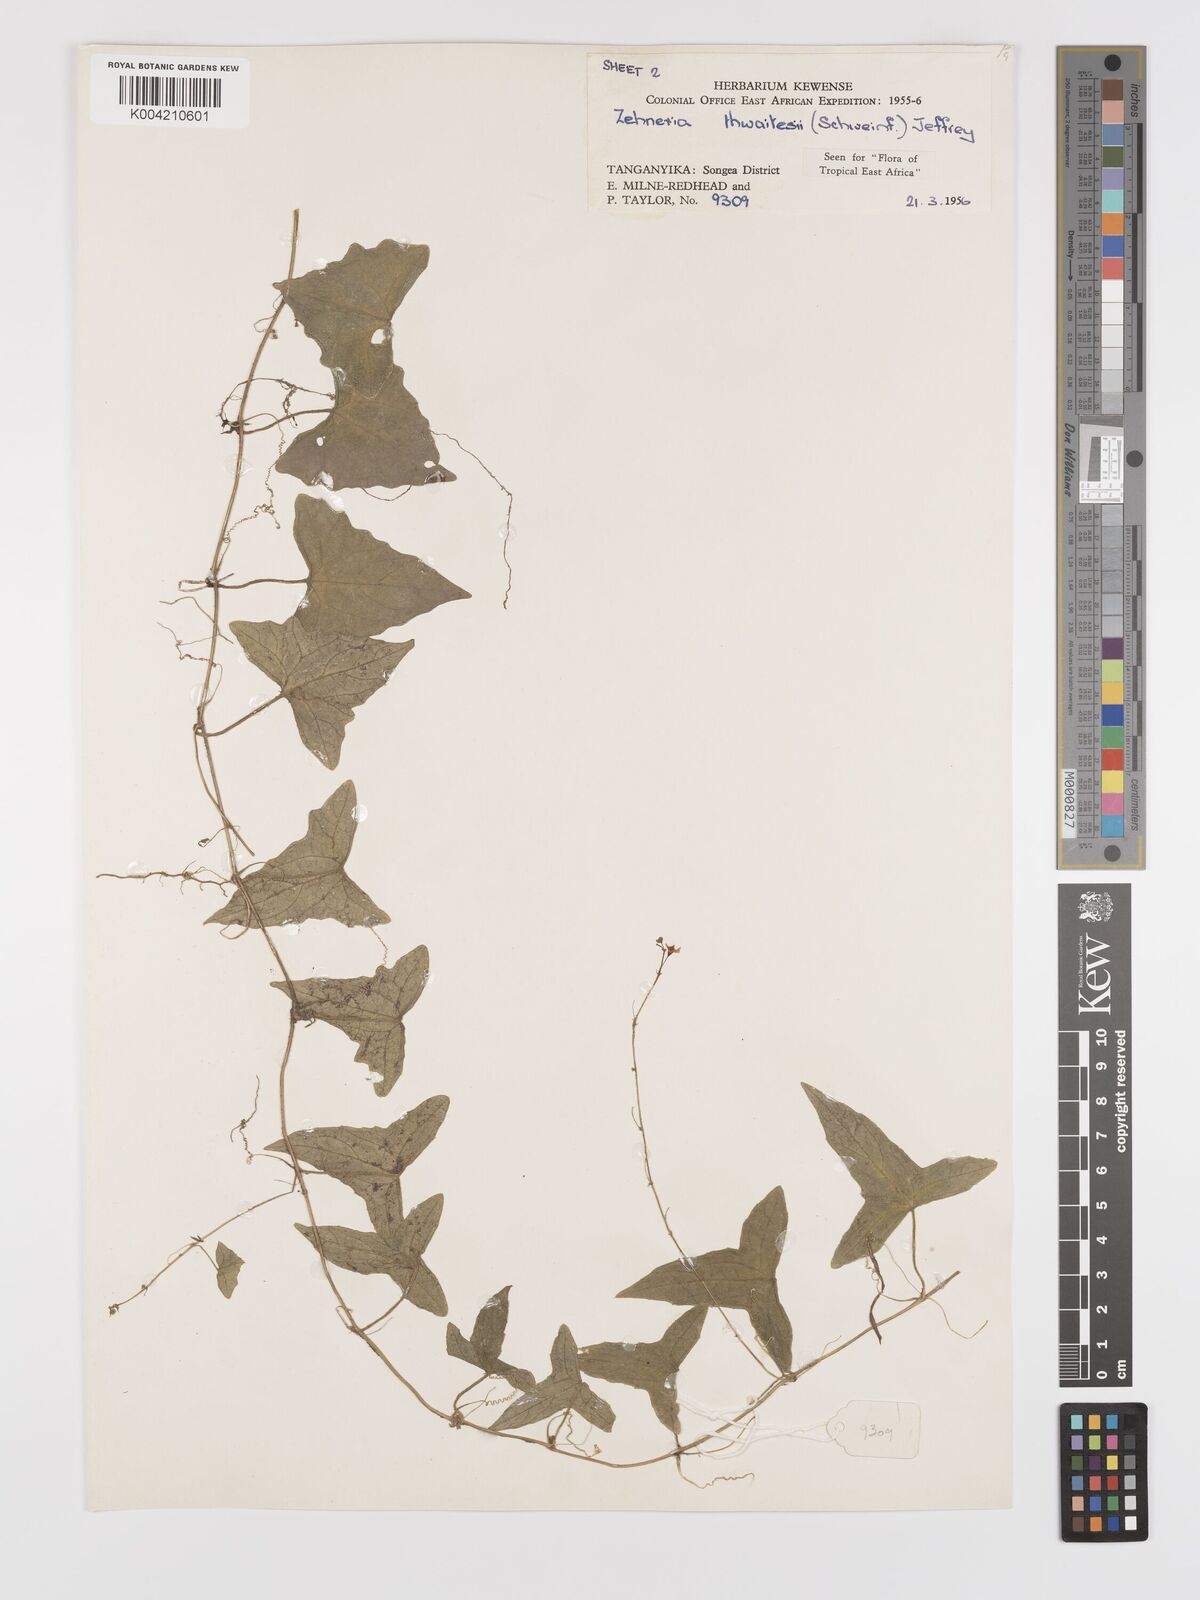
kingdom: Plantae
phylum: Tracheophyta
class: Magnoliopsida
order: Cucurbitales
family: Cucurbitaceae
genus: Zehneria
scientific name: Zehneria thwaitesii
